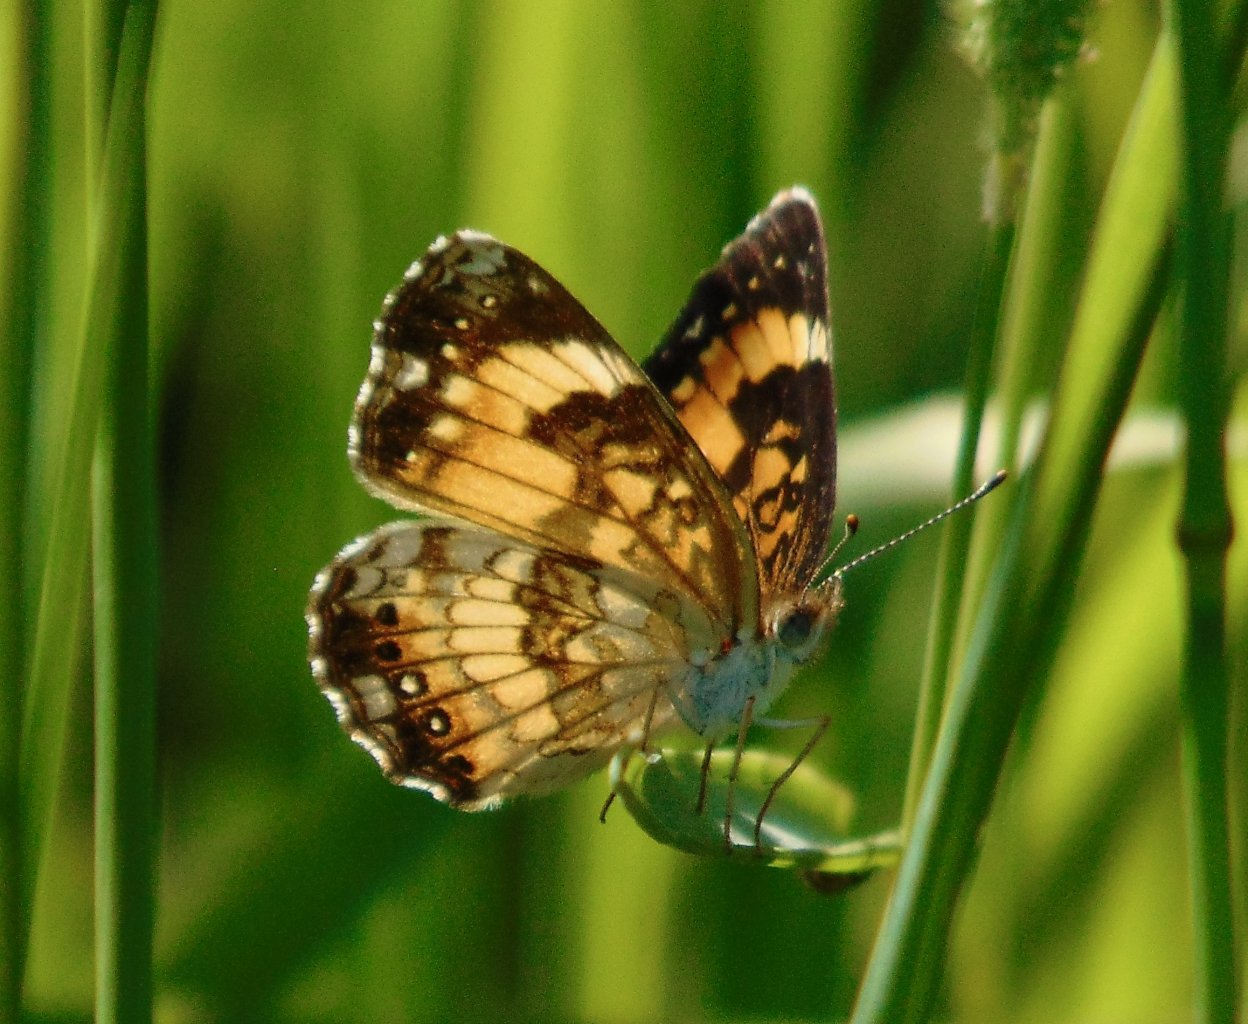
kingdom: Animalia
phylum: Arthropoda
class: Insecta
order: Lepidoptera
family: Nymphalidae
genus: Chlosyne
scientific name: Chlosyne nycteis
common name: Silvery Checkerspot
